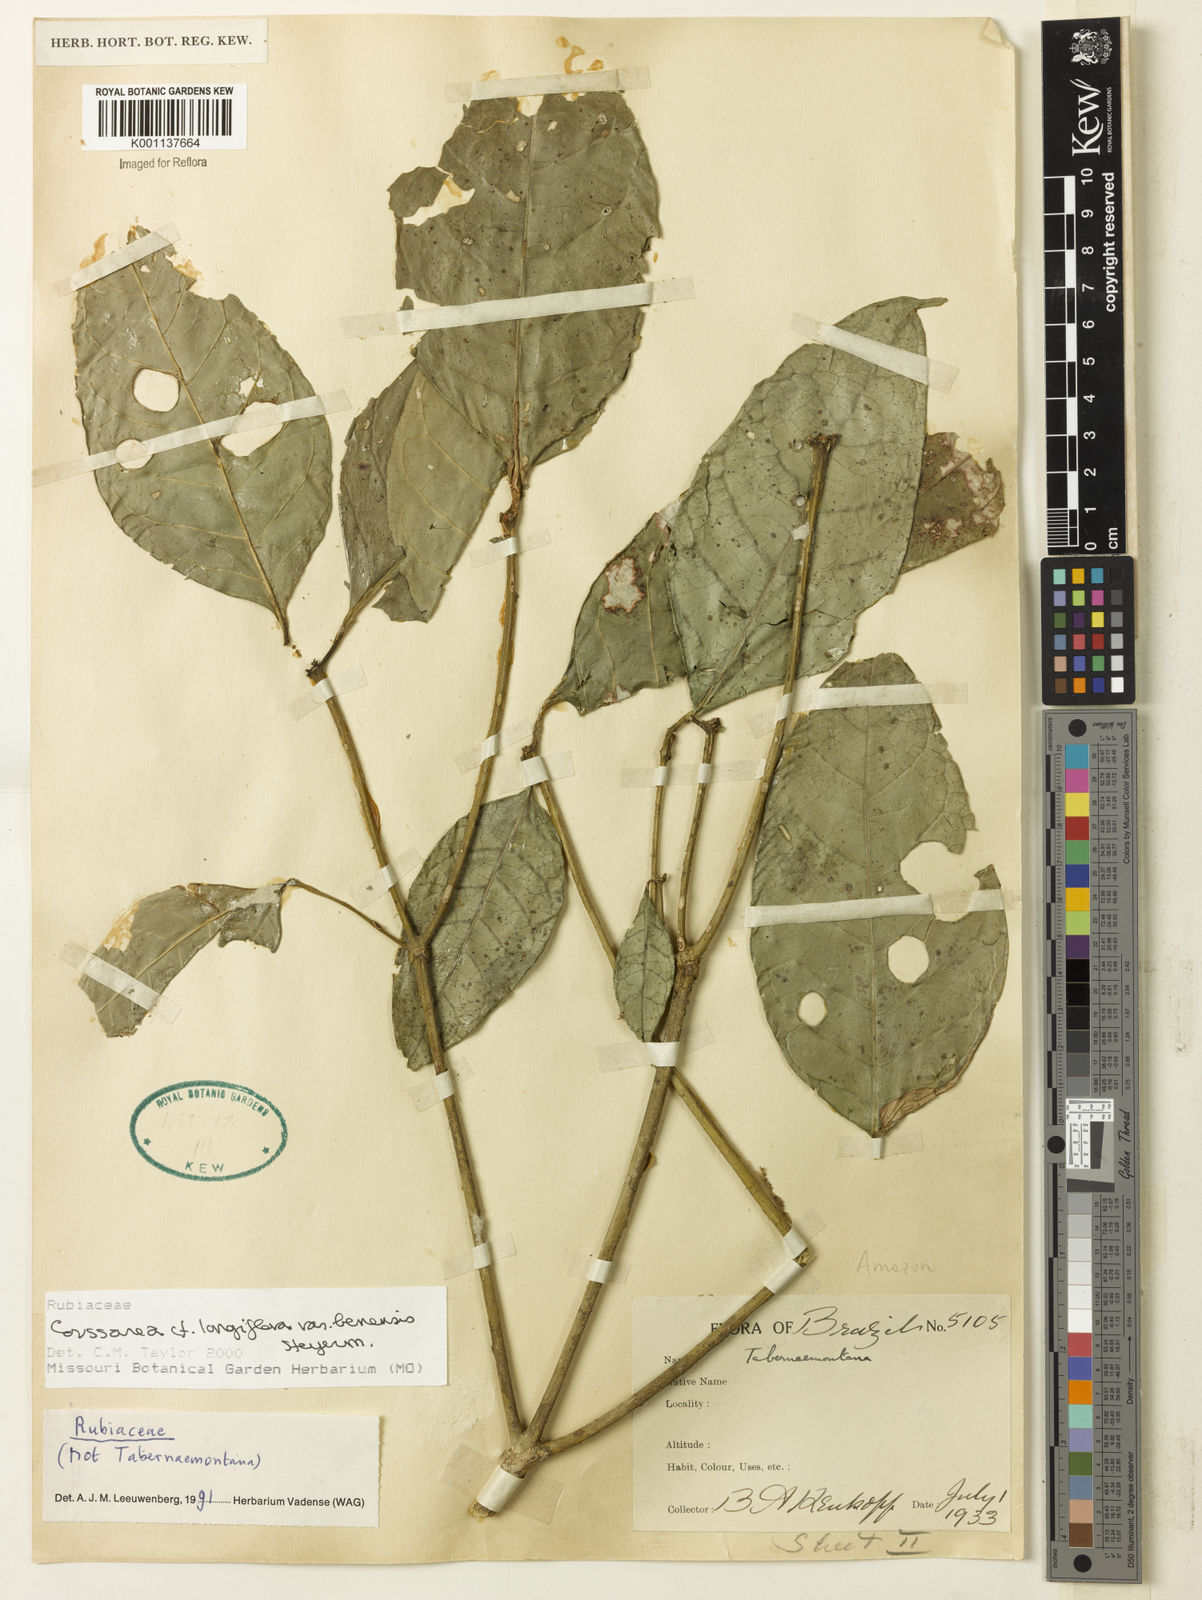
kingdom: Plantae
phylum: Tracheophyta
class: Magnoliopsida
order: Gentianales
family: Rubiaceae
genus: Coussarea
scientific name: Coussarea
